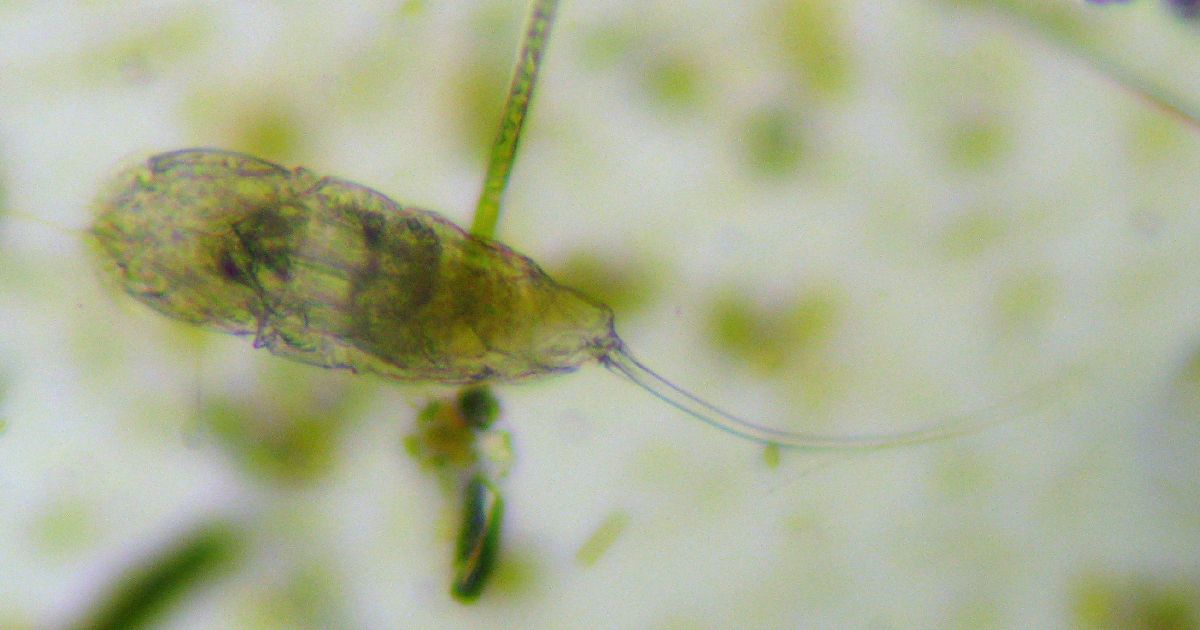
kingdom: Animalia
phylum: Rotifera
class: Eurotatoria
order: Ploima
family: Trichocercidae
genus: Trichocerca
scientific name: Trichocerca rattus
